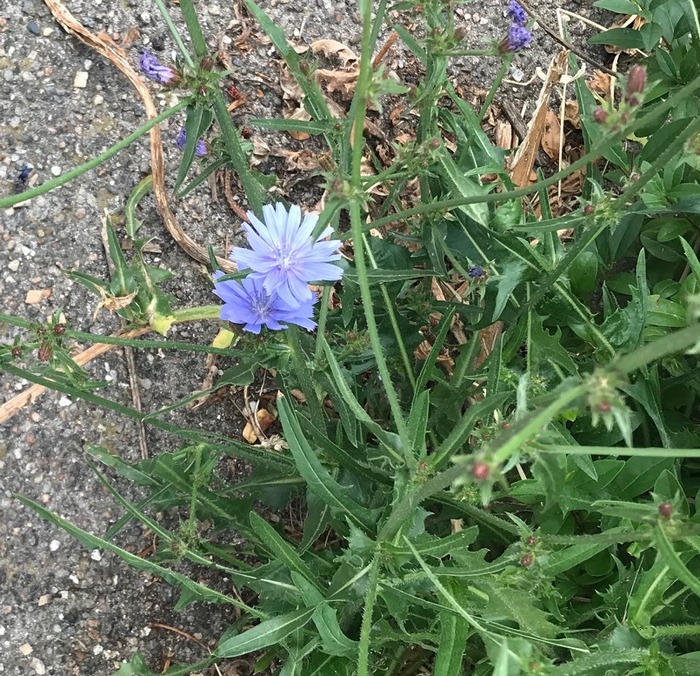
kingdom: Plantae
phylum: Tracheophyta
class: Magnoliopsida
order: Asterales
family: Asteraceae
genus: Cichorium
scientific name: Cichorium intybus
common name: Cikorie
